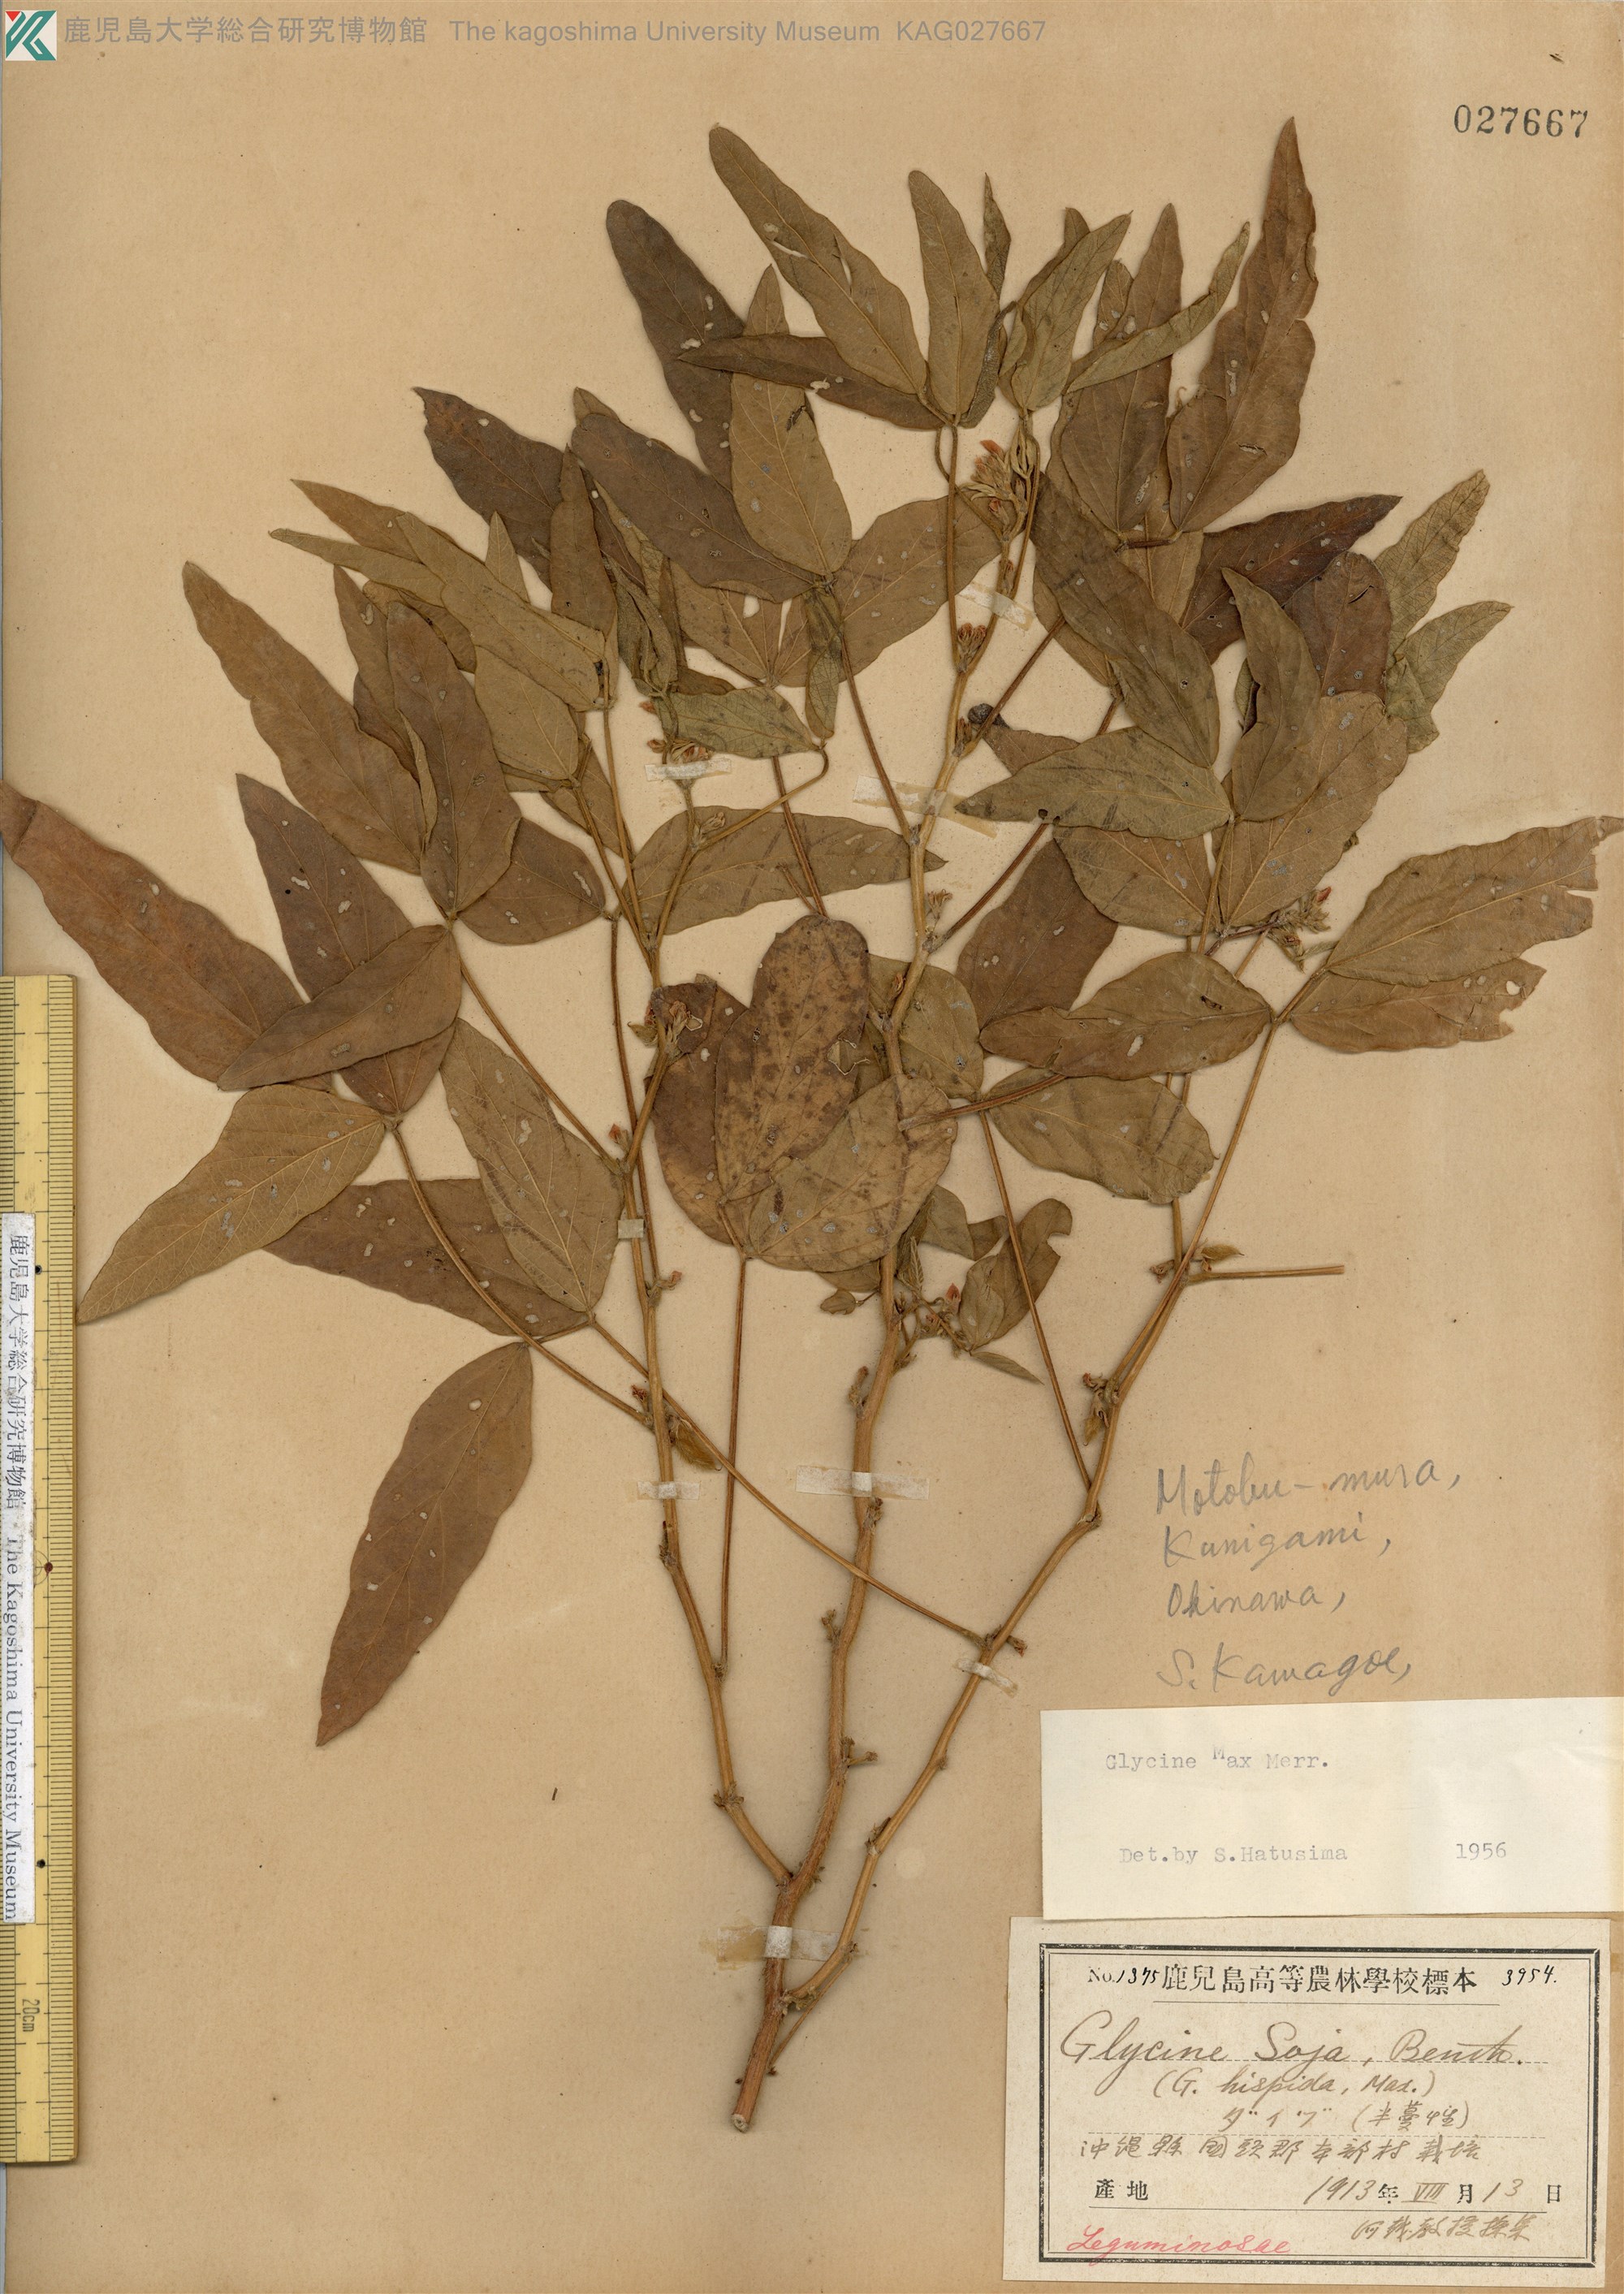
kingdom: Plantae
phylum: Tracheophyta
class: Magnoliopsida
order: Fabales
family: Fabaceae
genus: Glycine
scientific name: Glycine max
